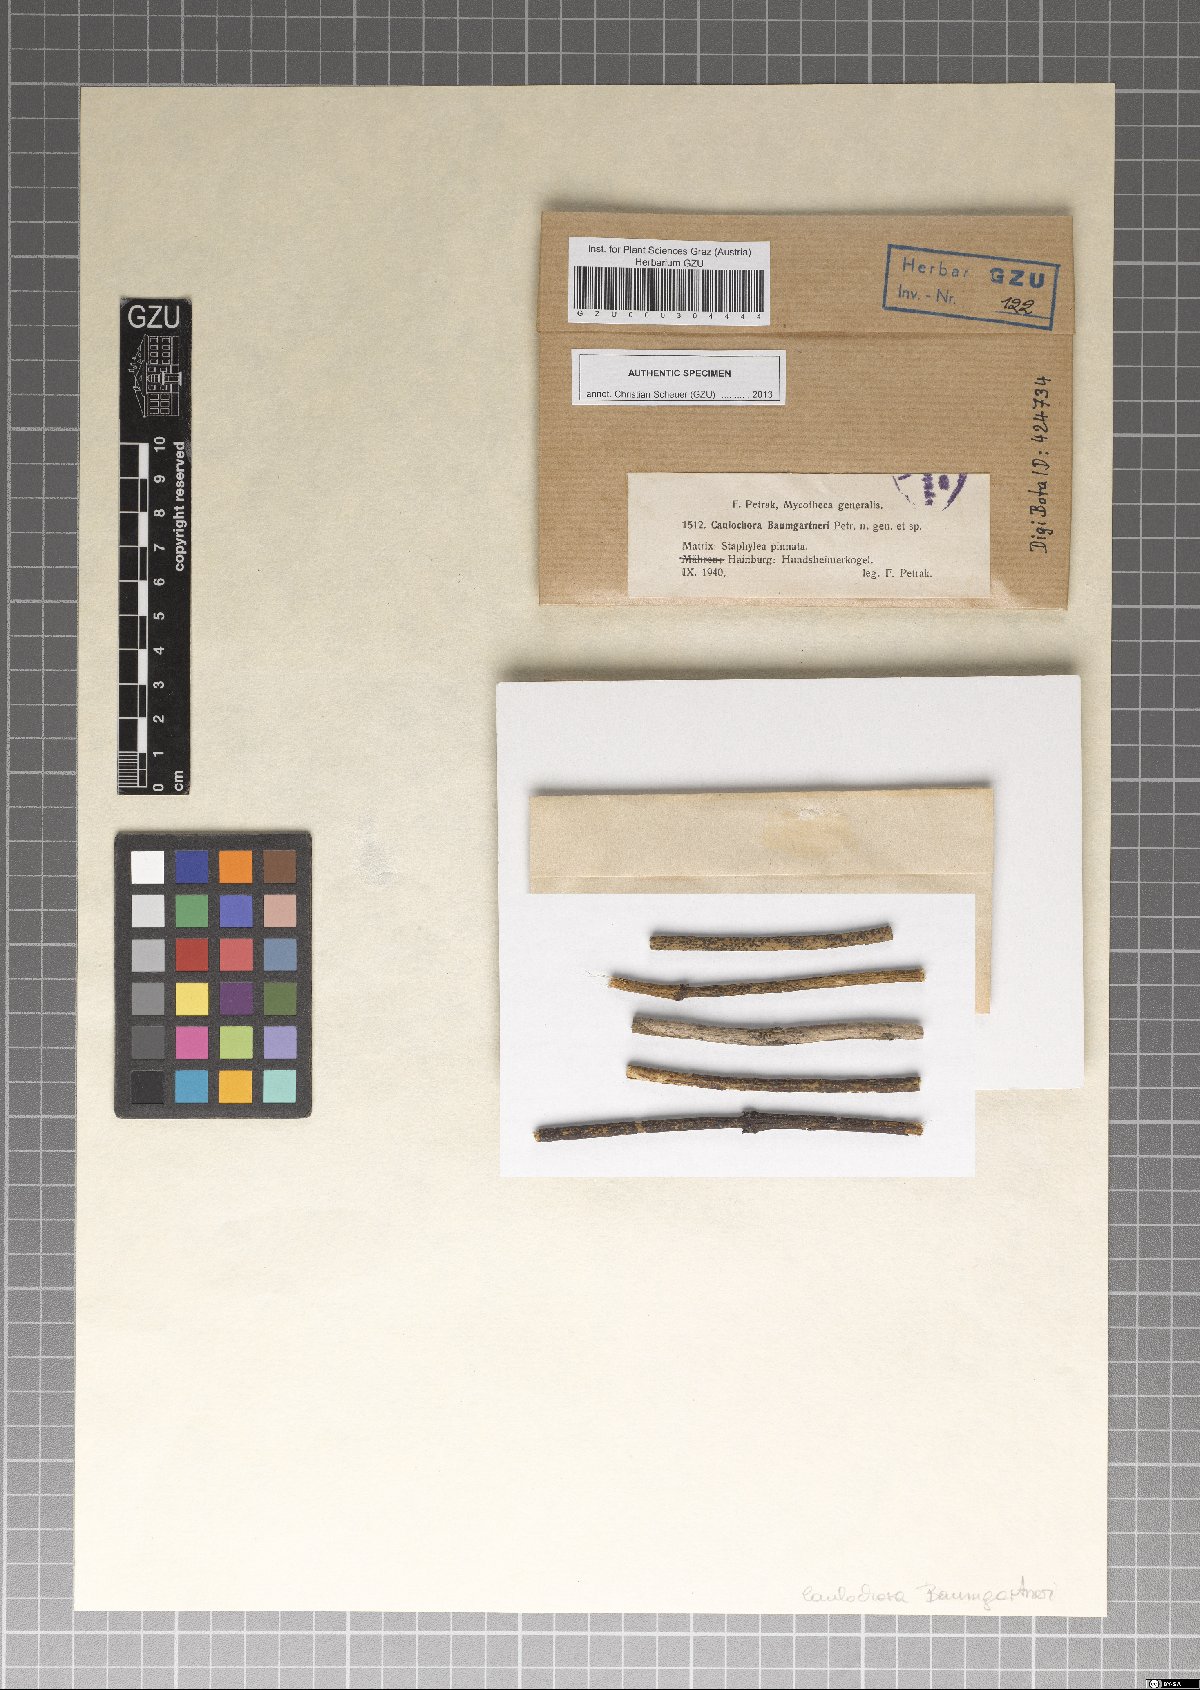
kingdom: Fungi
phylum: Ascomycota
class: Sordariomycetes
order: Glomerellales
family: Glomerellaceae
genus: Colletotrichum
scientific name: Colletotrichum gloeosporioides
